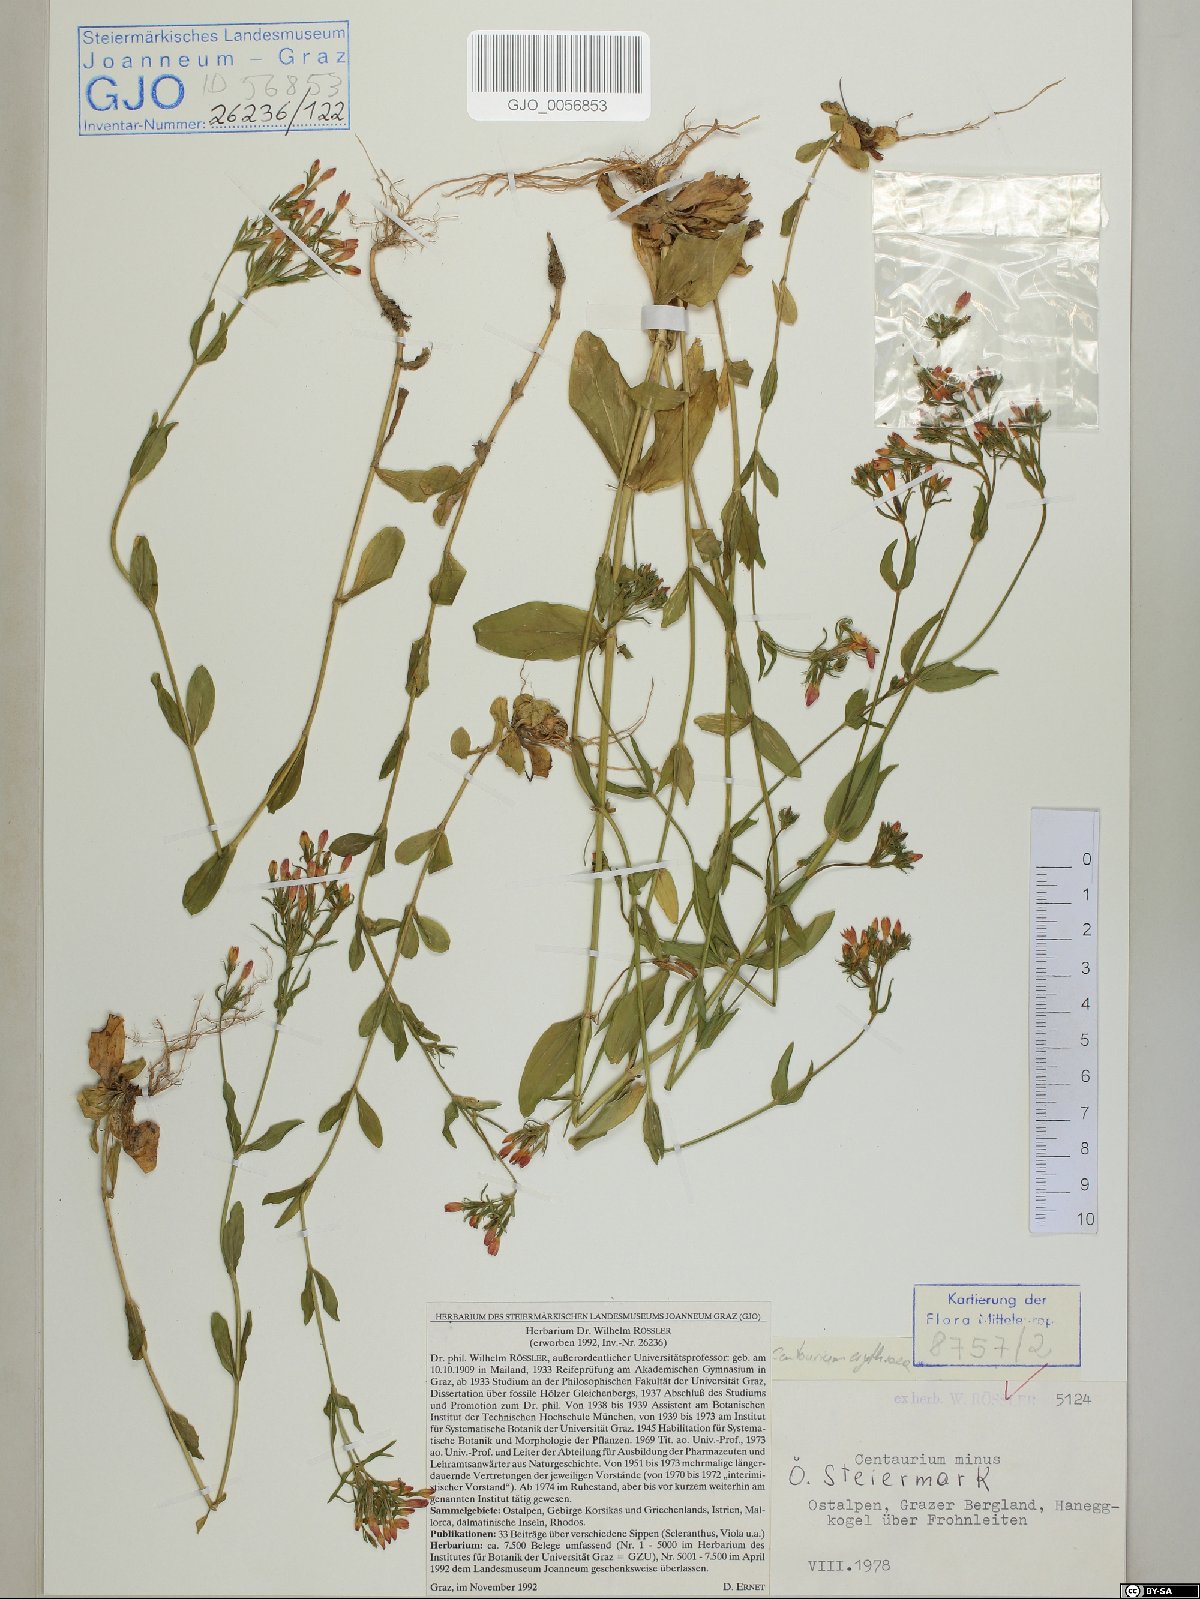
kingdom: Plantae
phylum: Tracheophyta
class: Magnoliopsida
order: Gentianales
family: Gentianaceae
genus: Centaurium
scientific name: Centaurium erythraea
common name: Common centaury
